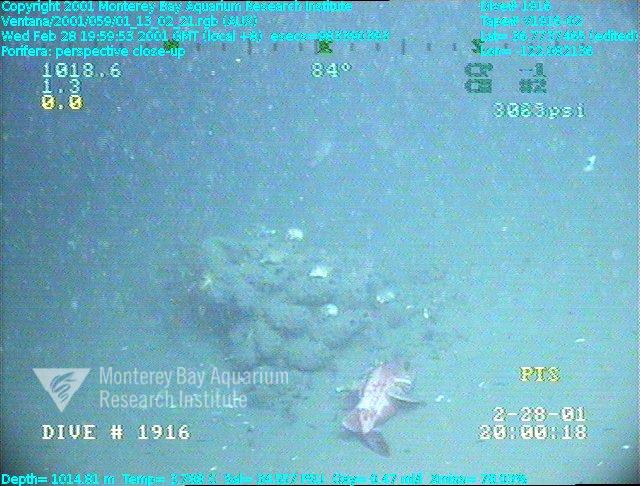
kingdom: Animalia
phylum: Porifera
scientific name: Porifera
